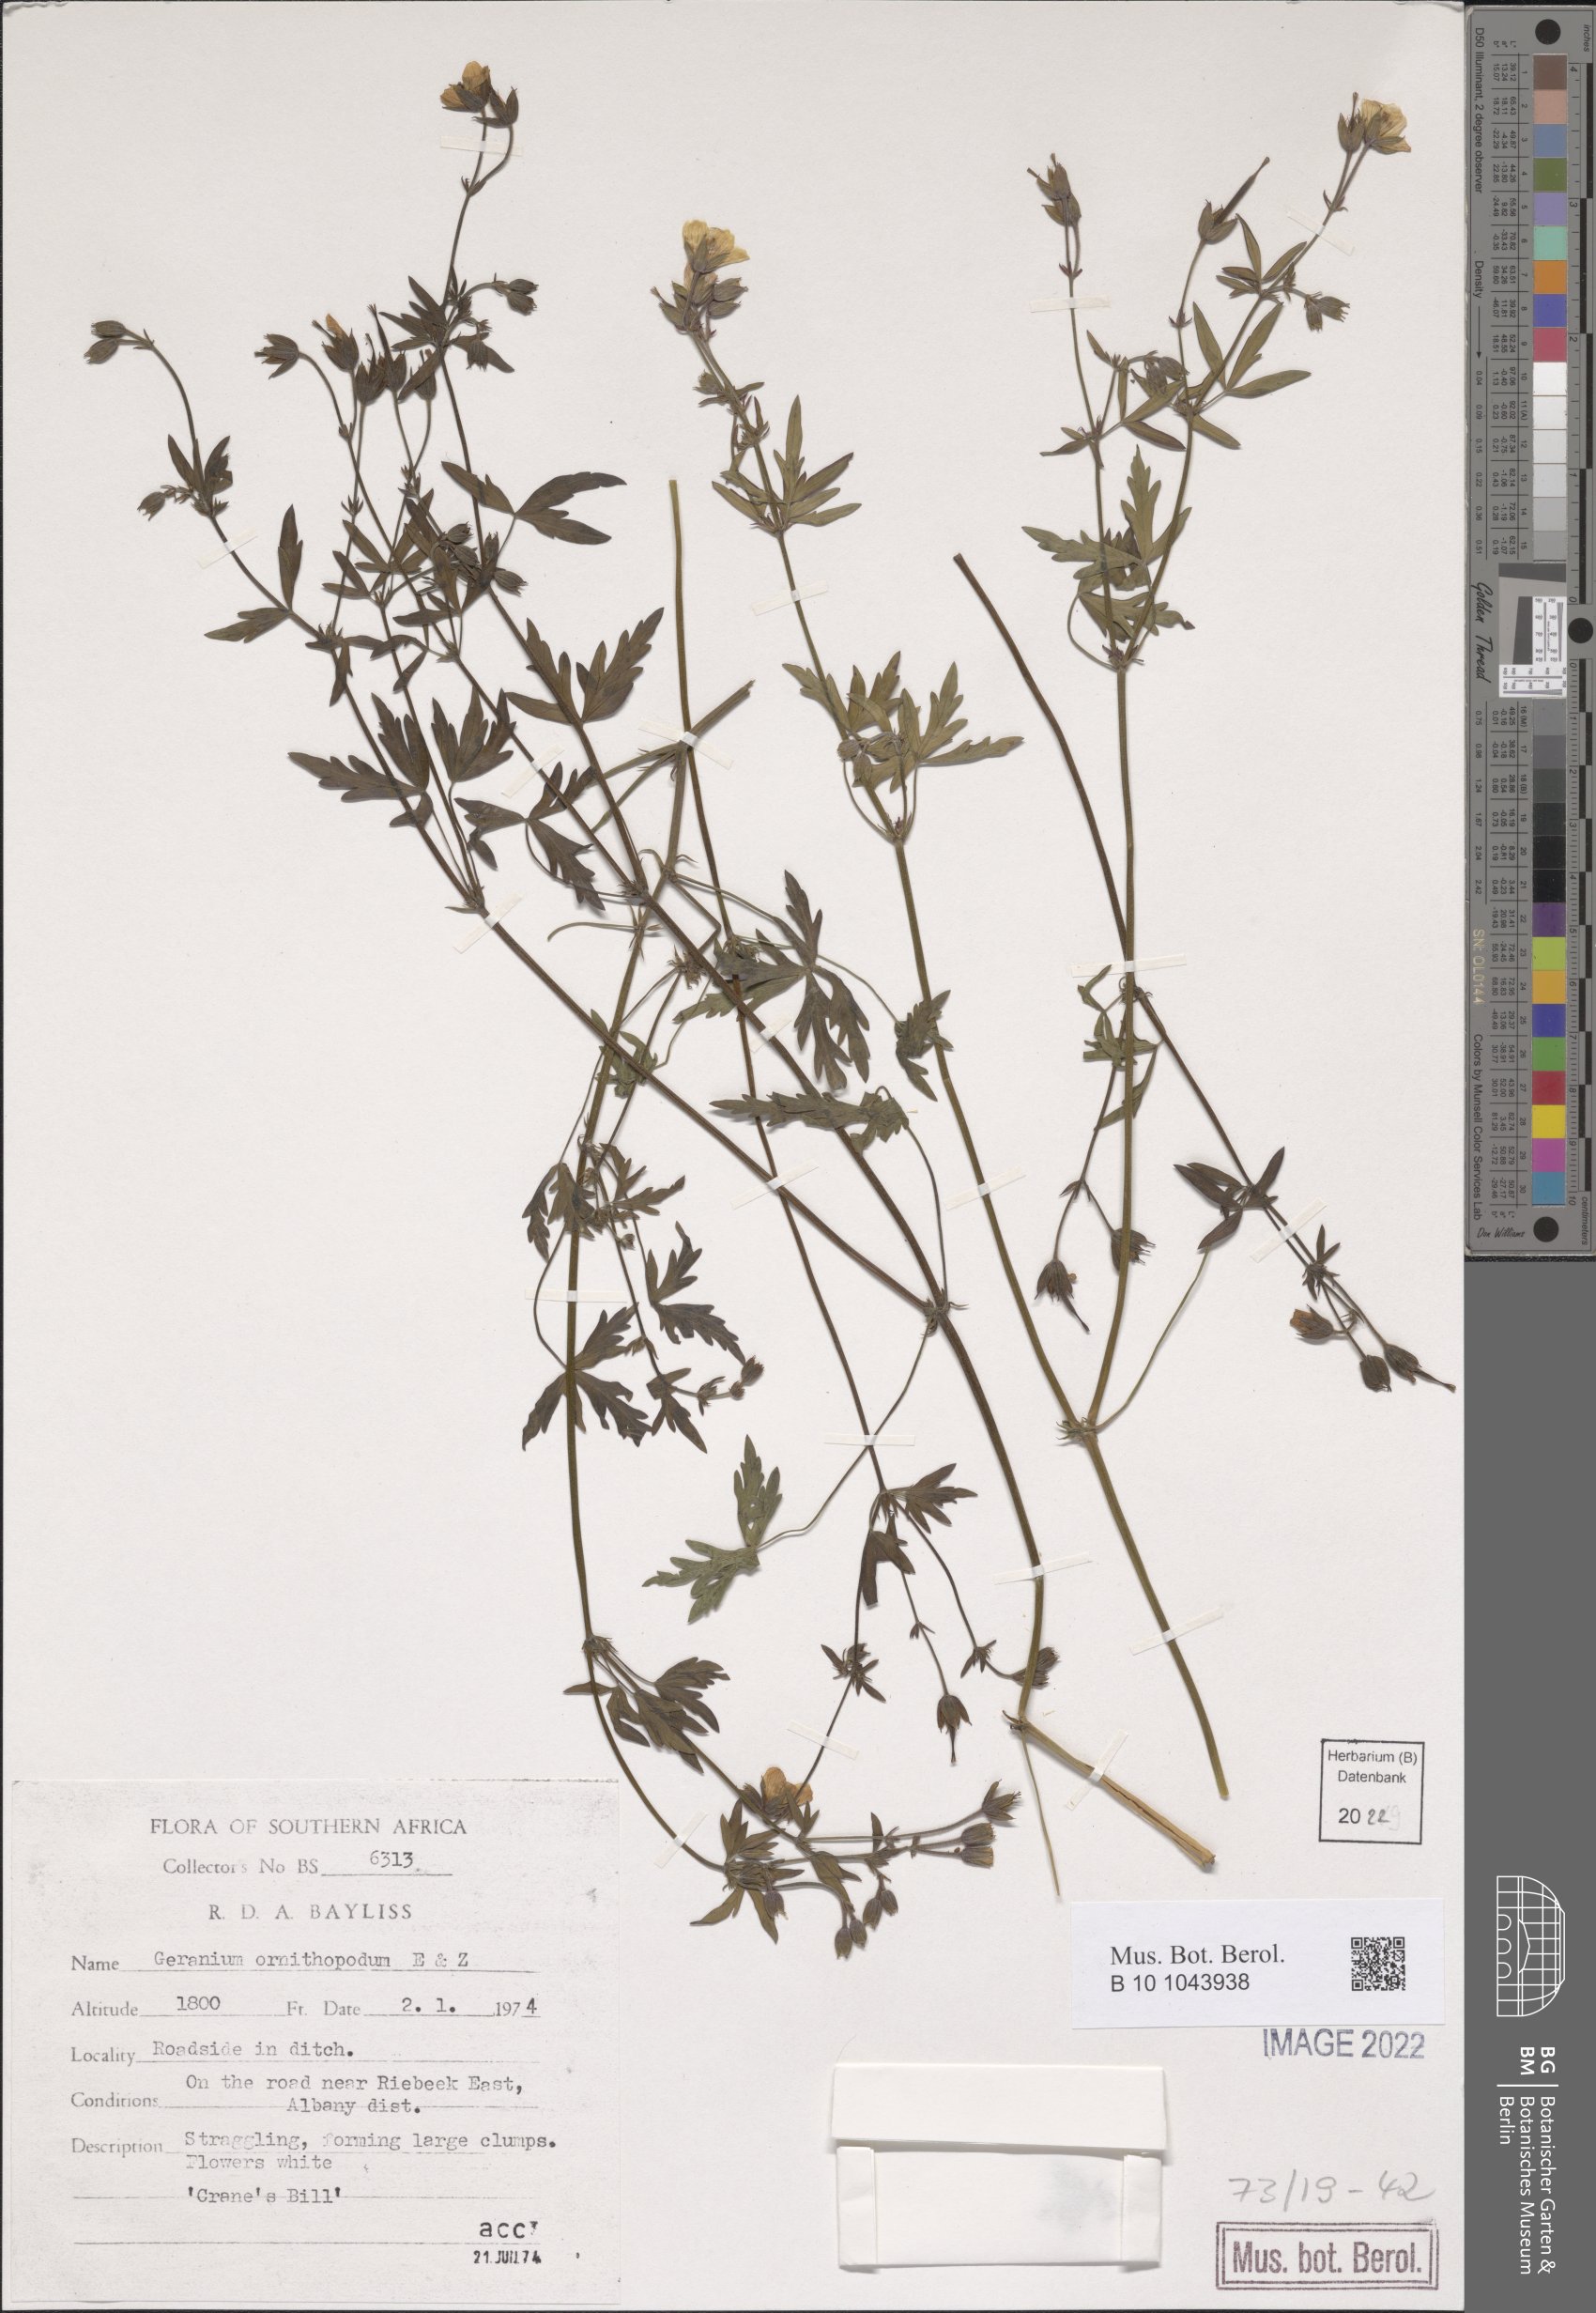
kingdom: Plantae
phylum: Tracheophyta
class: Magnoliopsida
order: Geraniales
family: Geraniaceae
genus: Geranium
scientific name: Geranium caffrum
